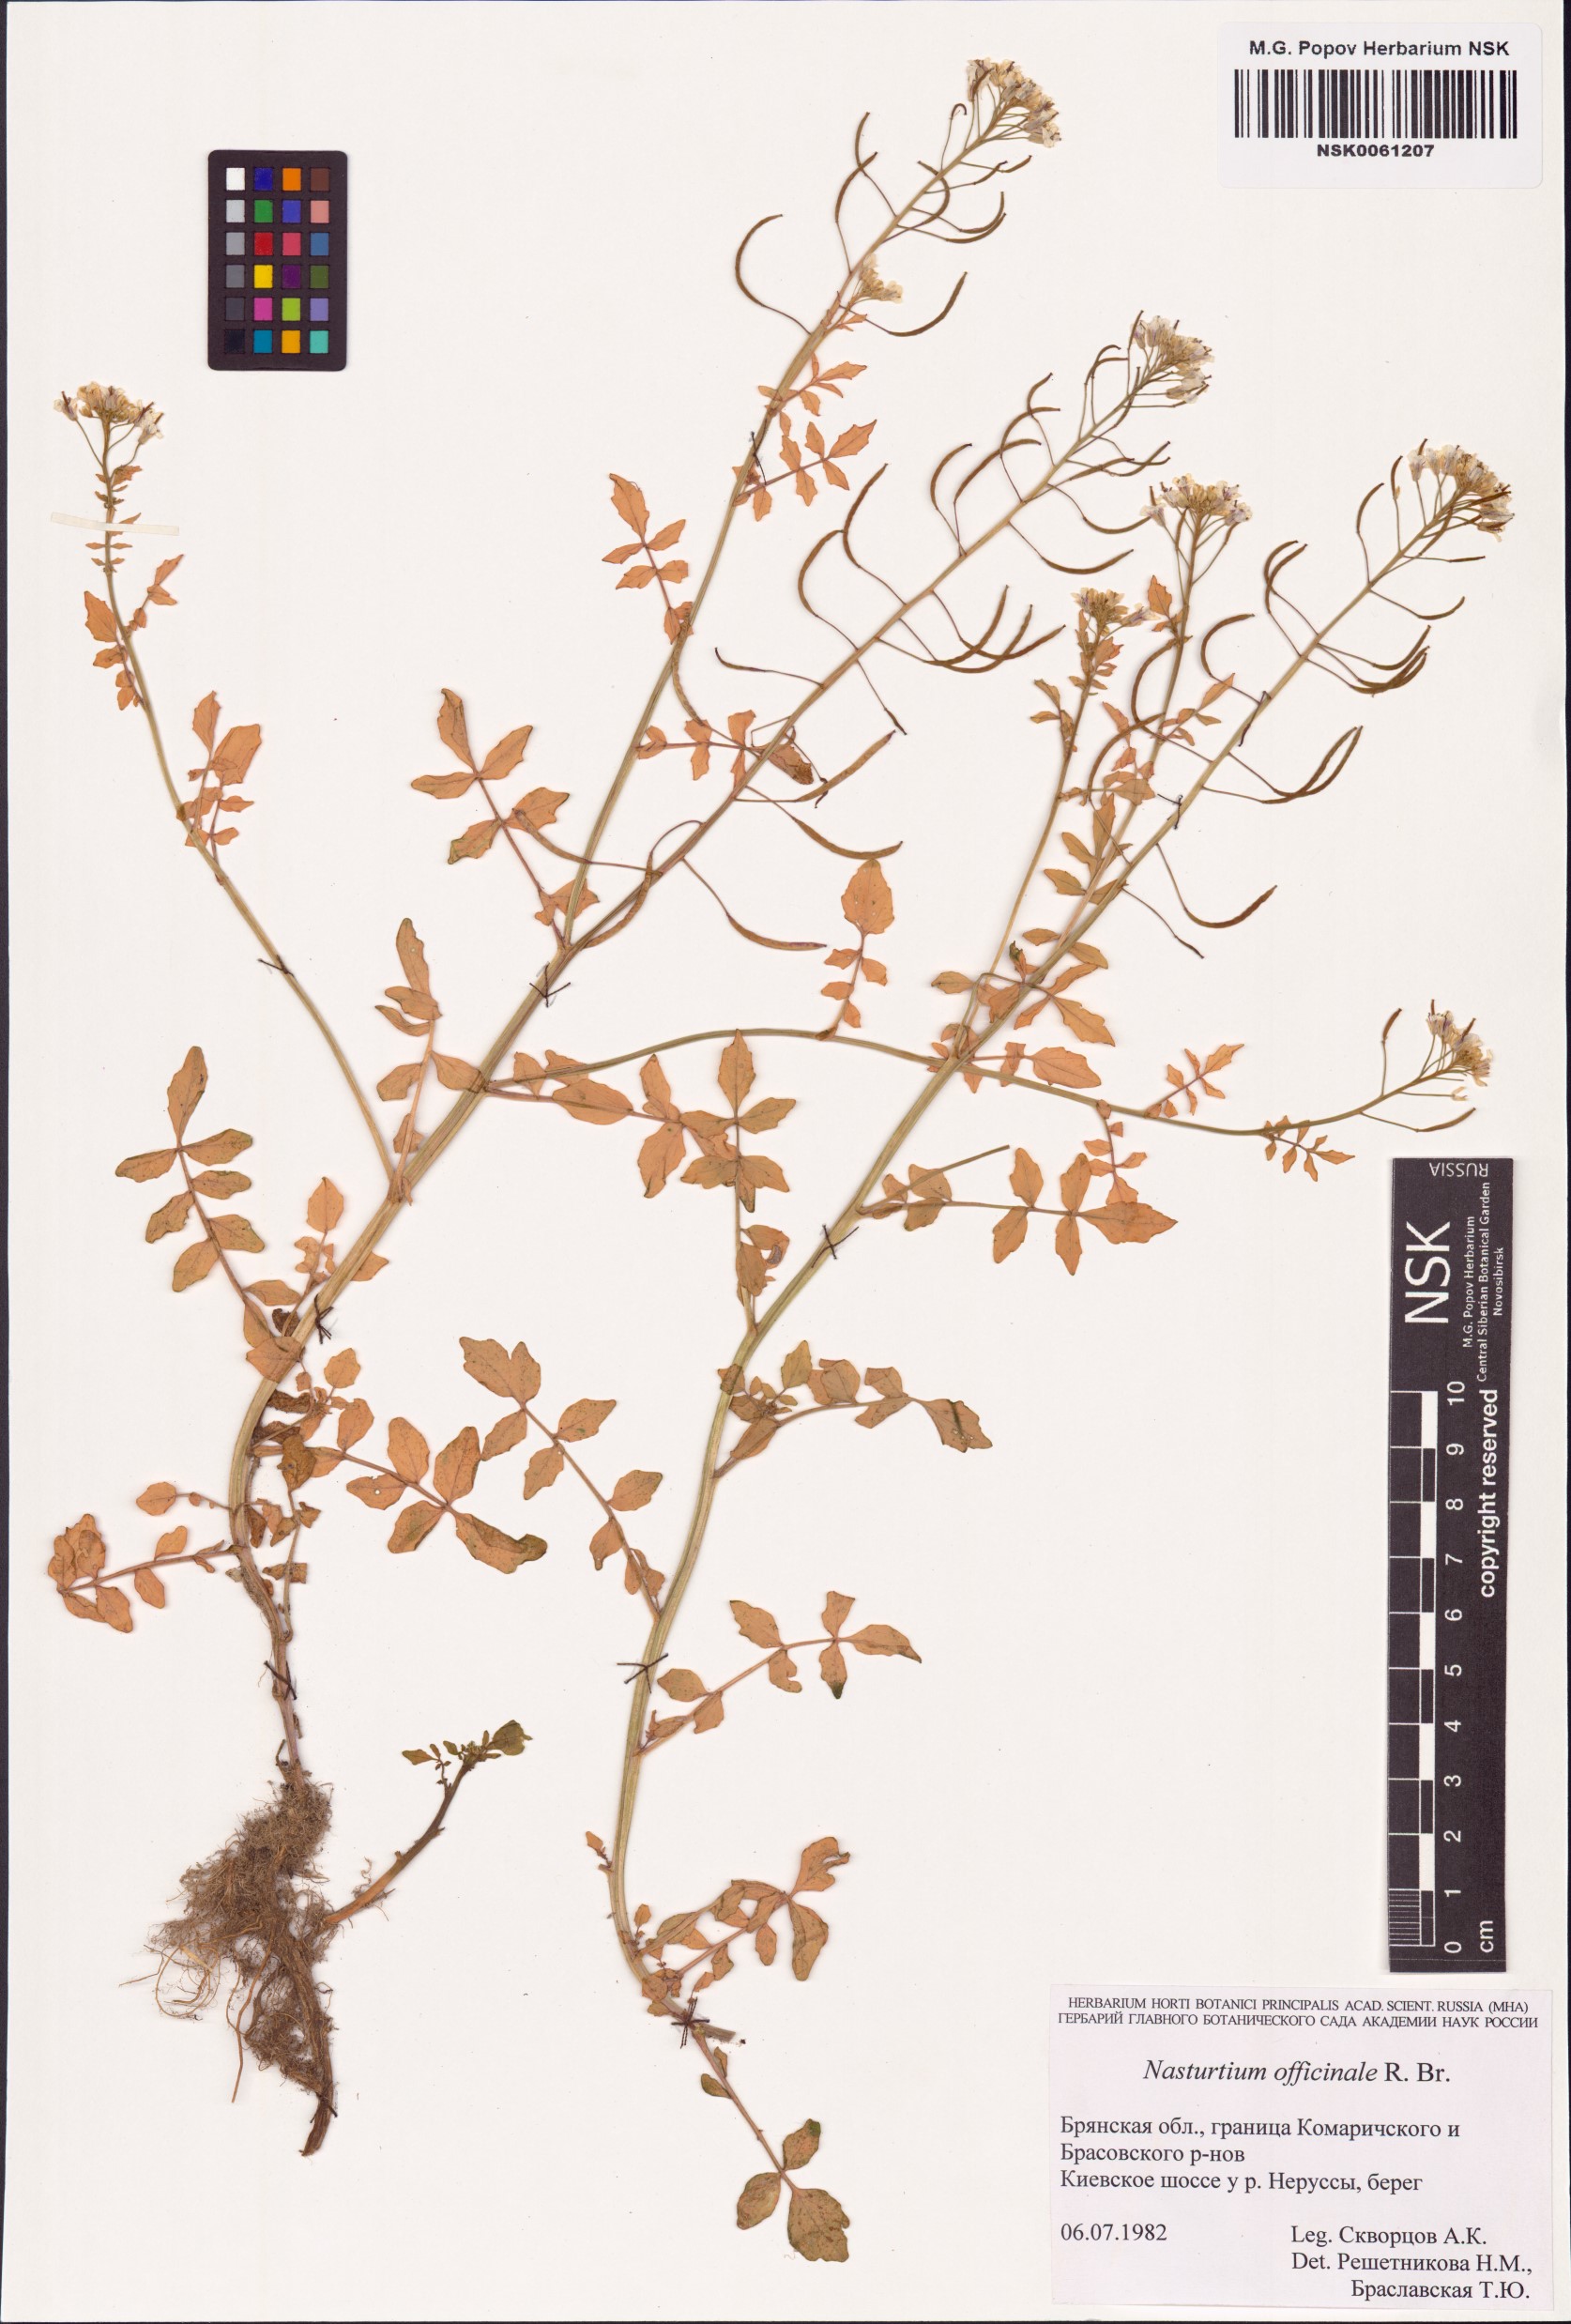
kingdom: Plantae
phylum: Tracheophyta
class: Magnoliopsida
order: Brassicales
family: Brassicaceae
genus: Nasturtium
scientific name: Nasturtium officinale
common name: Watercress
